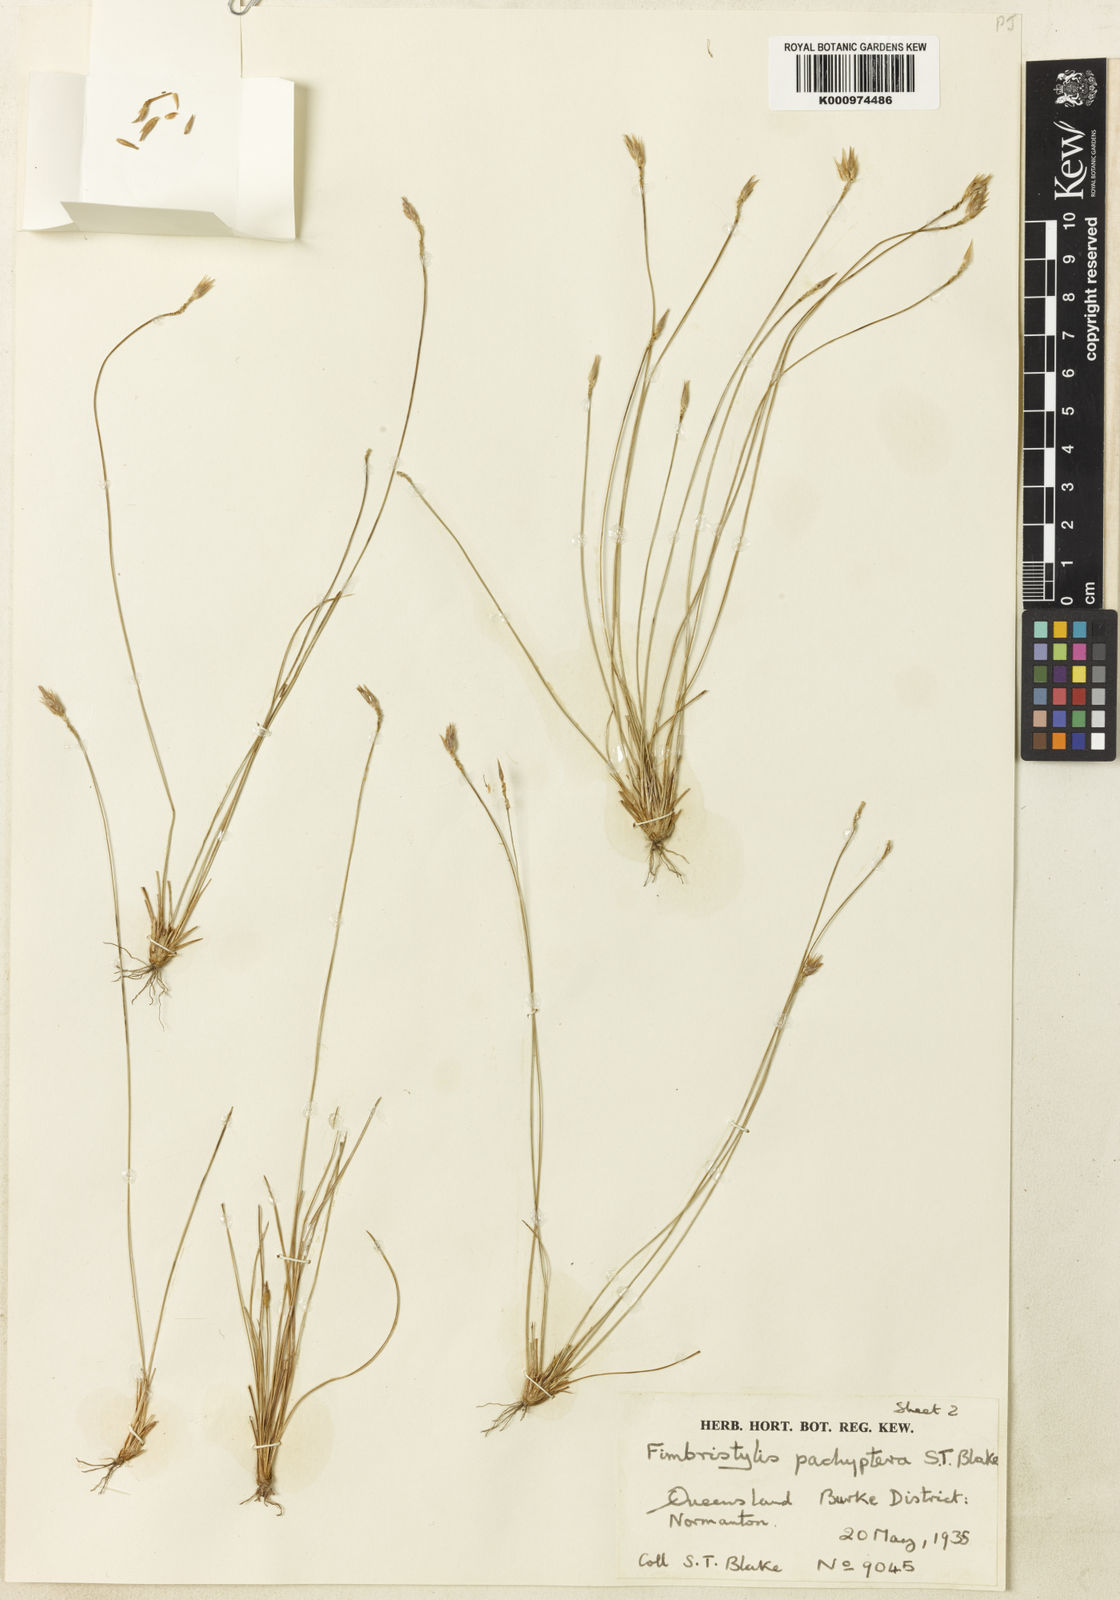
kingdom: Plantae
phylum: Tracheophyta
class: Liliopsida
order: Poales
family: Cyperaceae
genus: Abildgaardia
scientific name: Abildgaardia pachyptera
